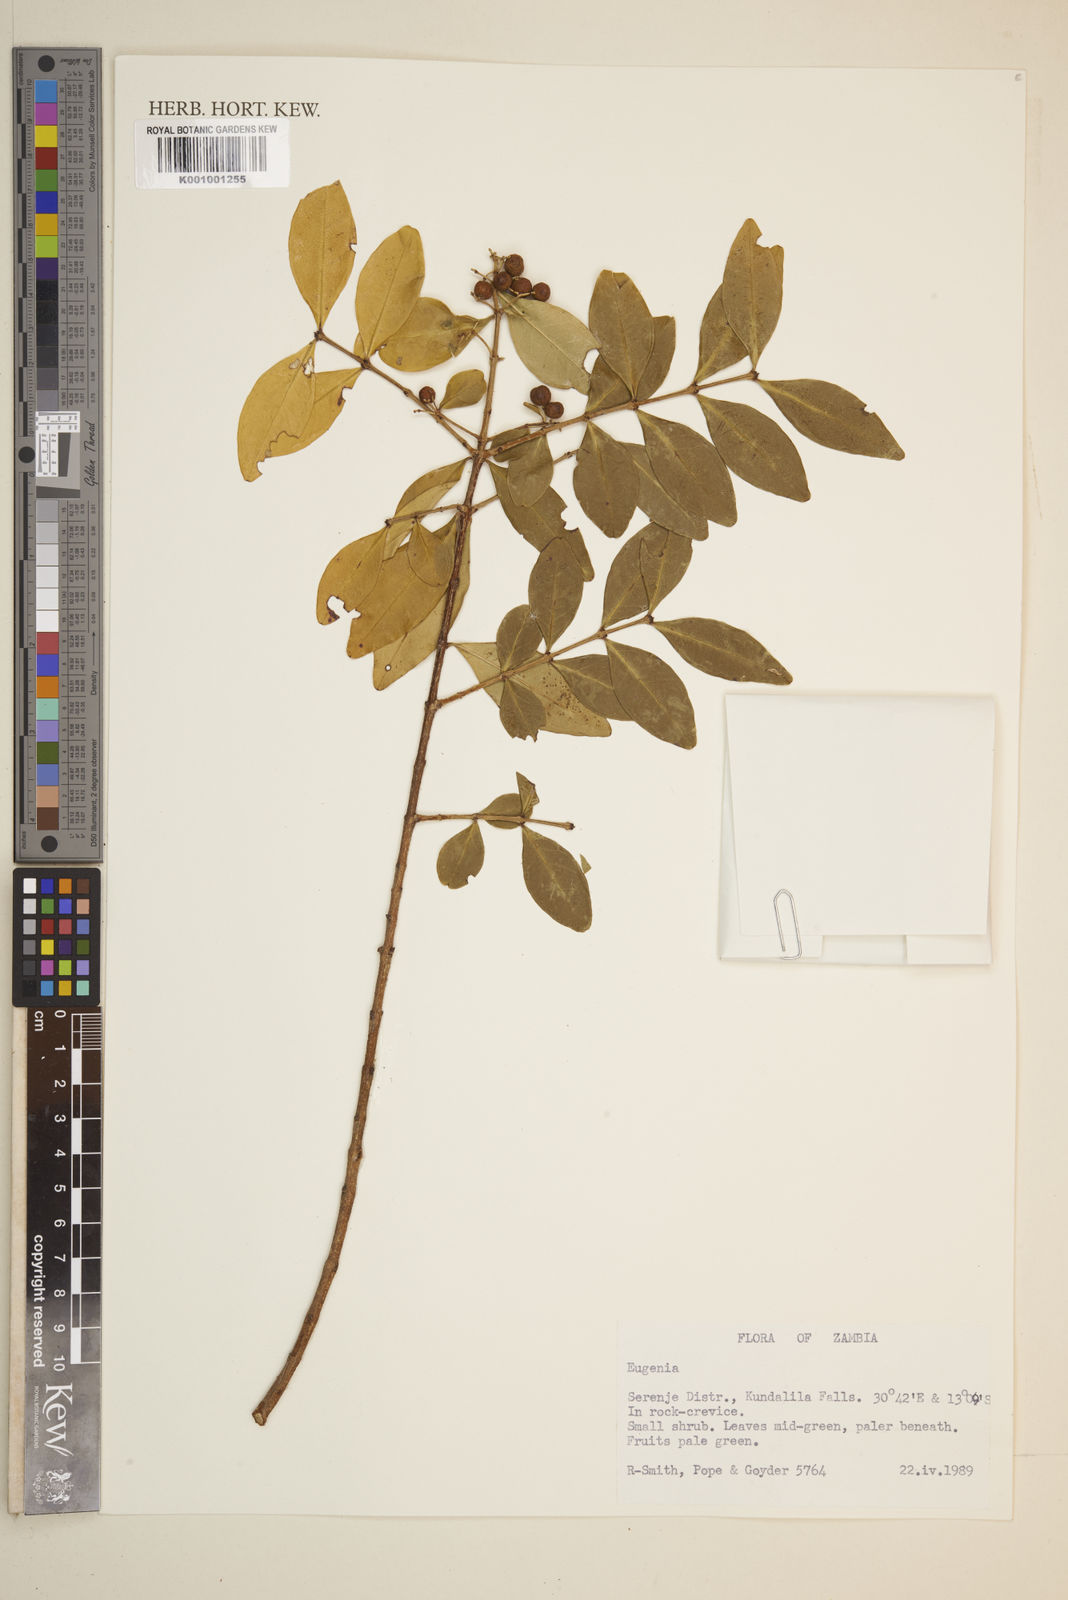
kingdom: Plantae
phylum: Tracheophyta
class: Magnoliopsida
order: Myrtales
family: Myrtaceae
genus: Eugenia
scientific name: Eugenia
